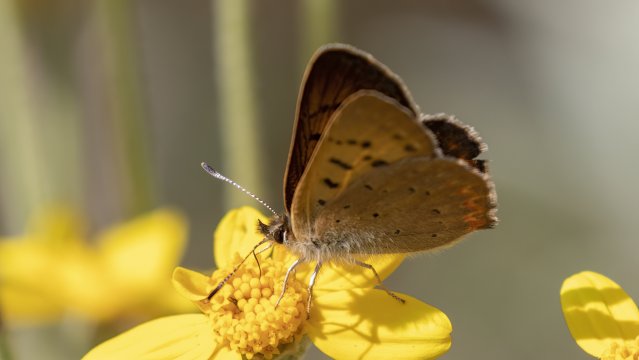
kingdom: Animalia
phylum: Arthropoda
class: Insecta
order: Lepidoptera
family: Sesiidae
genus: Sesia
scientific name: Sesia Lycaena helloides
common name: Purplish Copper
